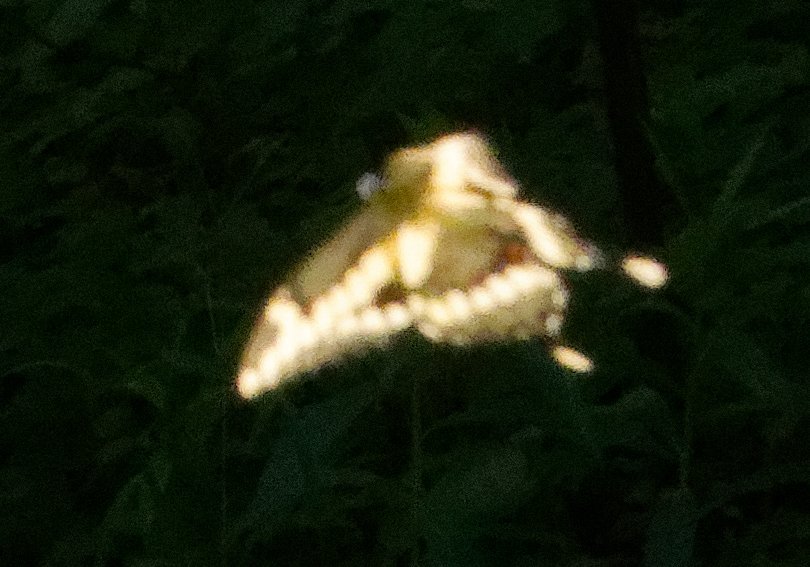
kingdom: Animalia
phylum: Arthropoda
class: Insecta
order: Lepidoptera
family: Papilionidae
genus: Papilio
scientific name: Papilio cresphontes
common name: Eastern Giant Swallowtail
